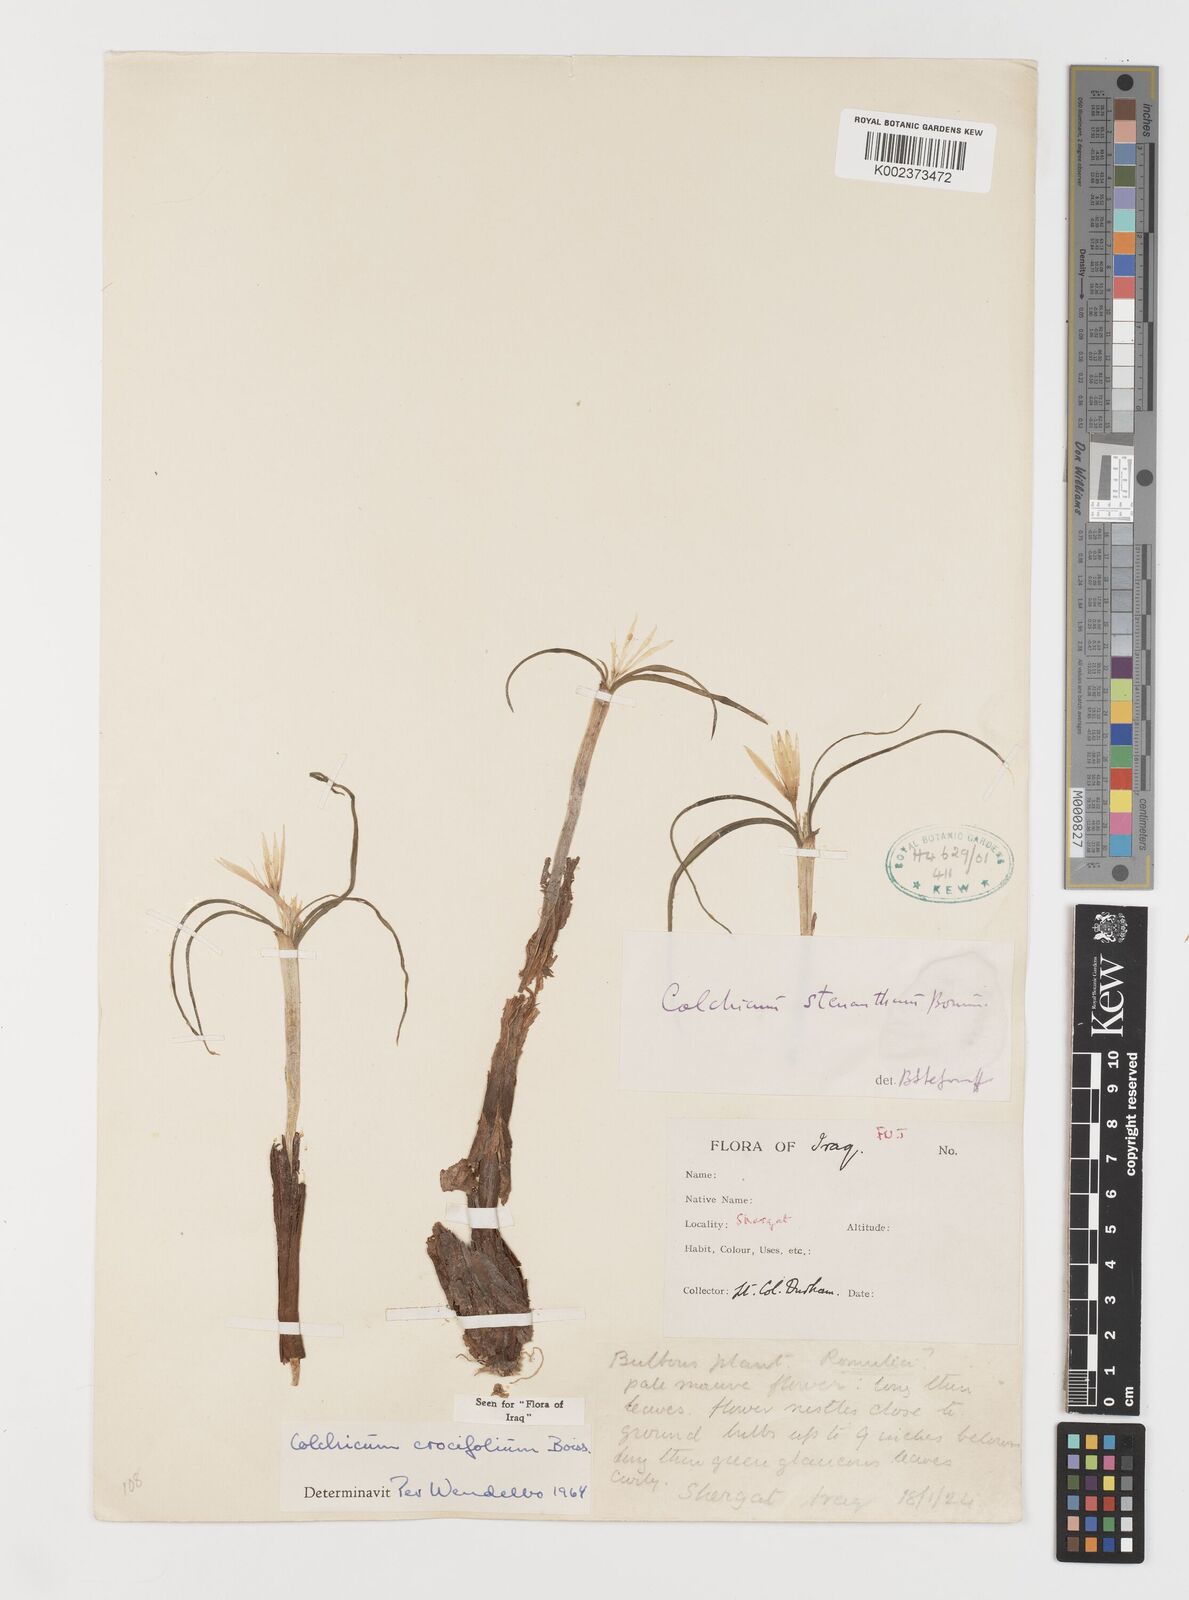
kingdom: Plantae
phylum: Tracheophyta
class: Liliopsida
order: Liliales
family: Colchicaceae
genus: Colchicum
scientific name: Colchicum crocifolium
